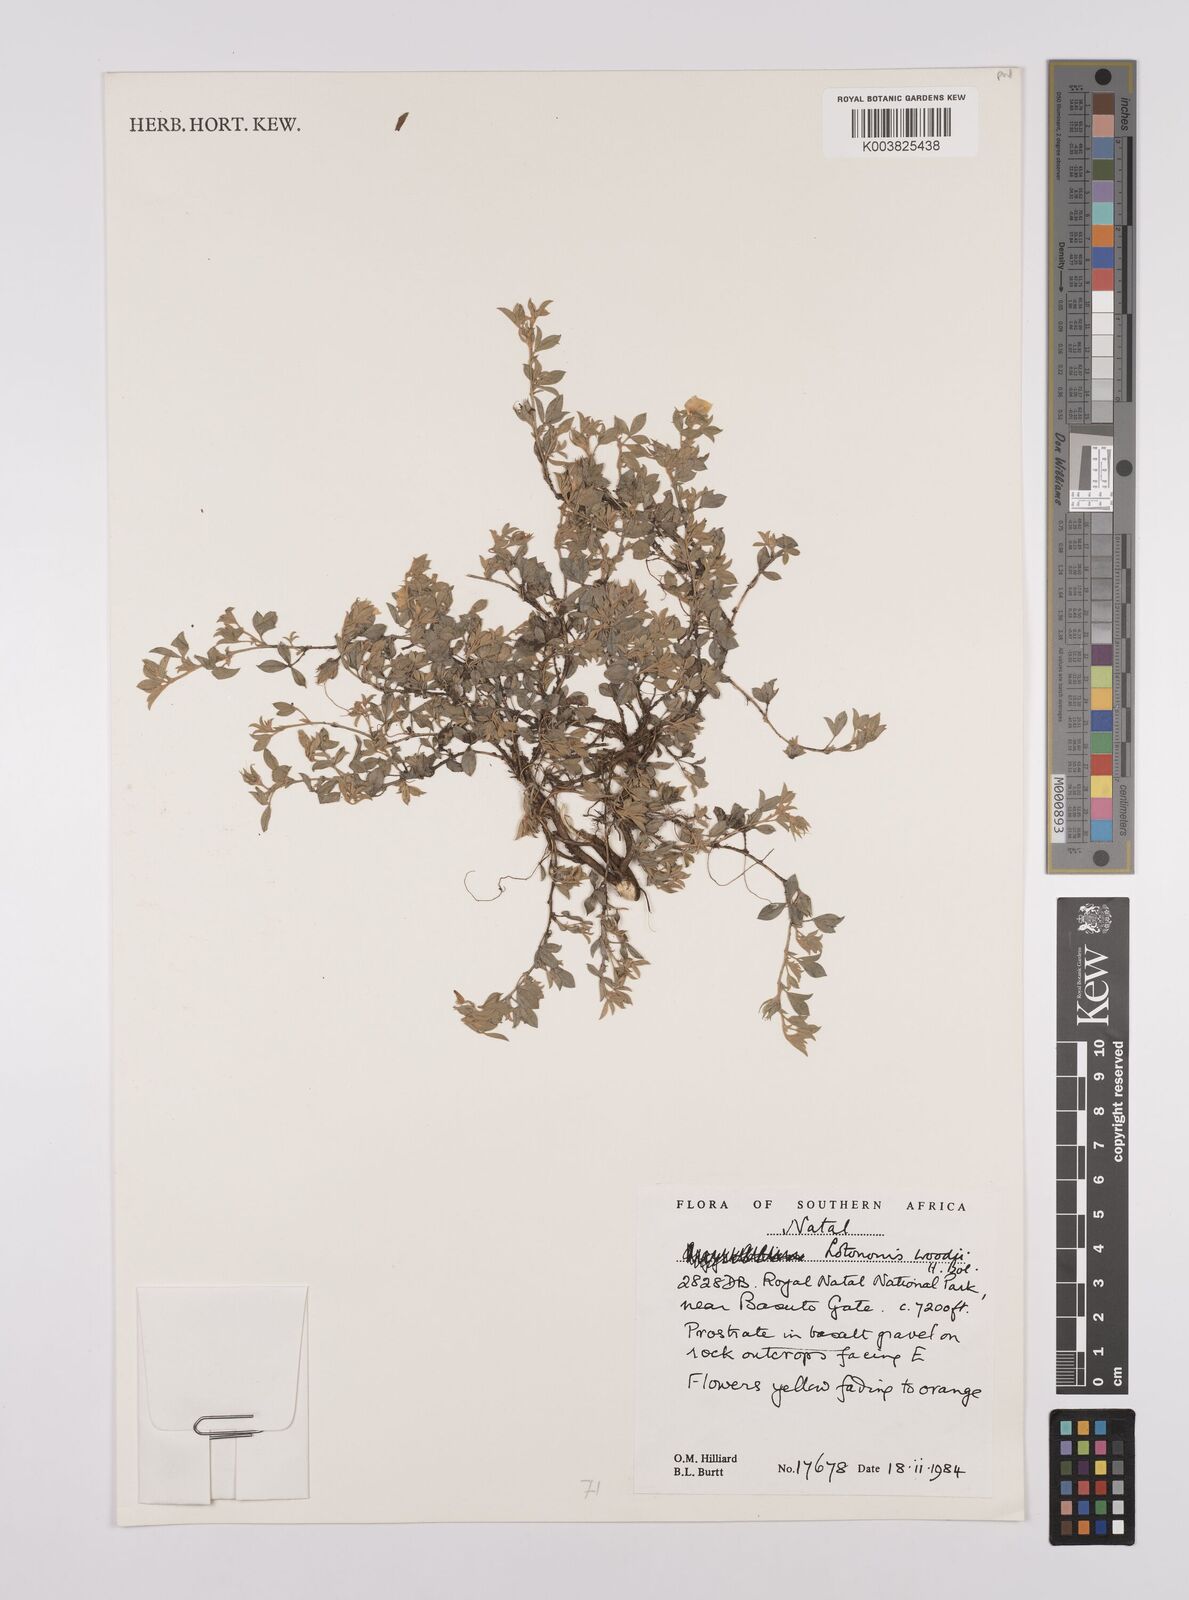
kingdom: Plantae
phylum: Tracheophyta
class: Magnoliopsida
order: Fabales
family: Fabaceae
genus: Lotononis
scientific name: Lotononis laxa
